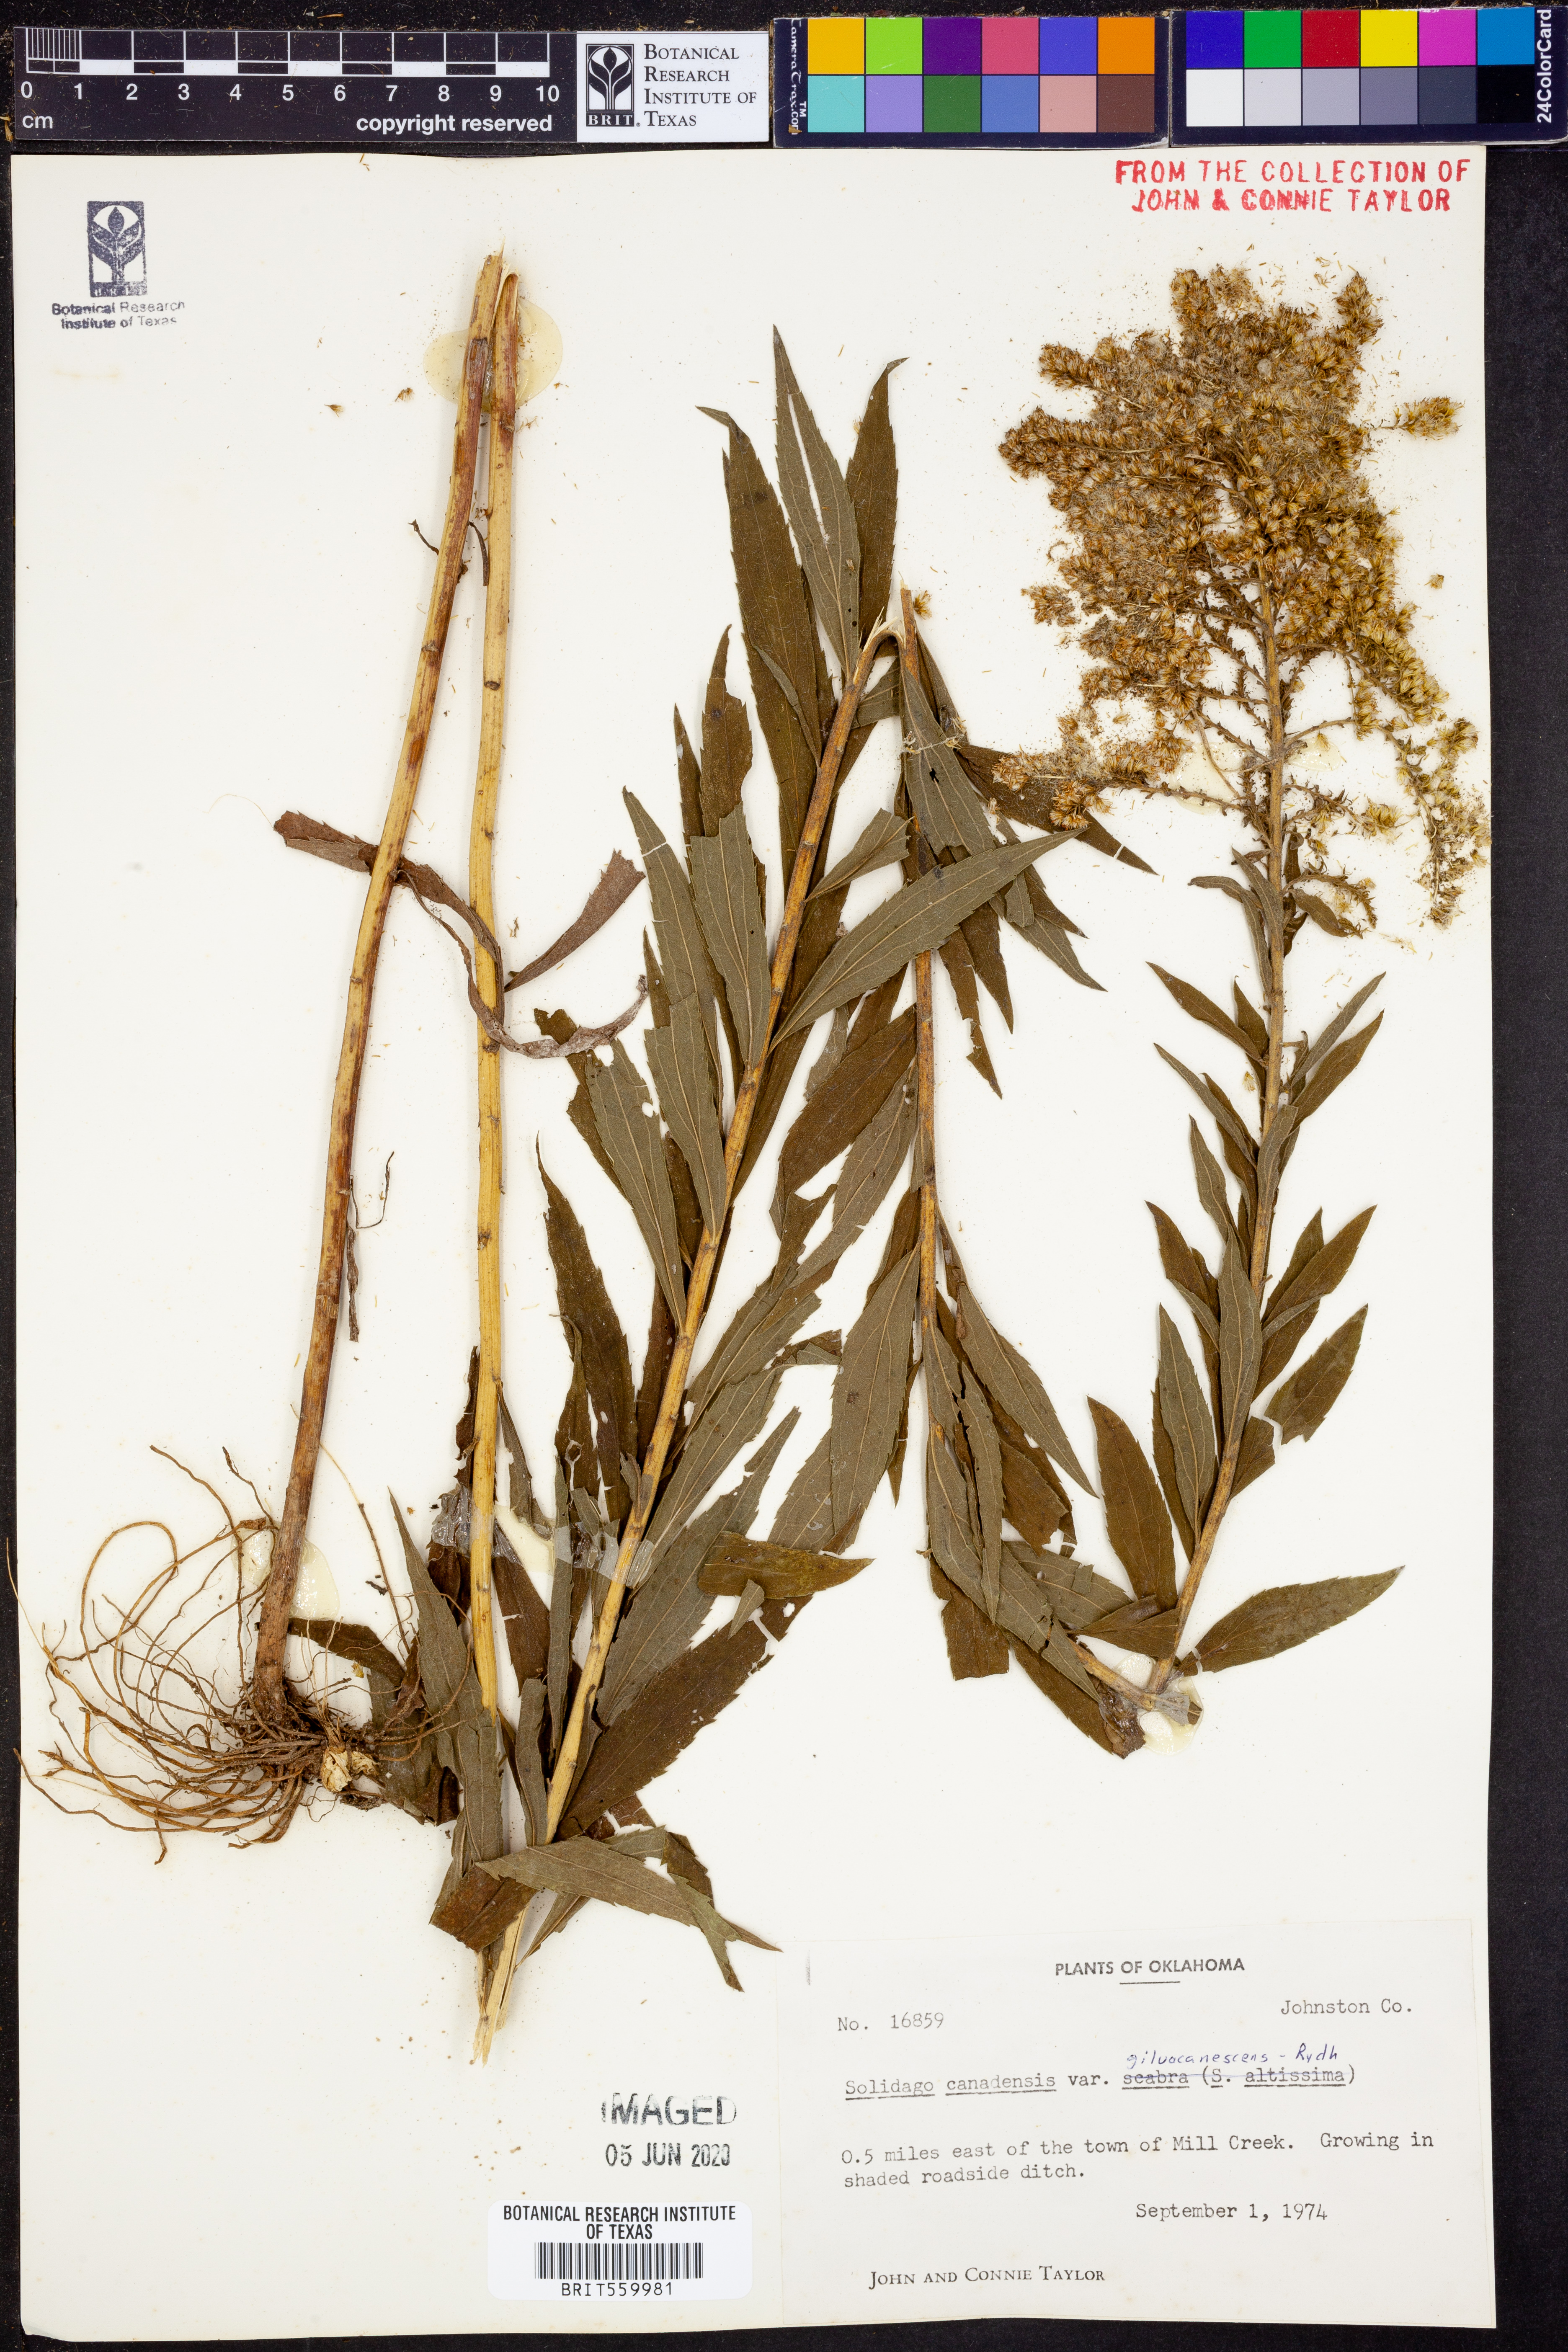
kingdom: Plantae
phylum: Tracheophyta
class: Magnoliopsida
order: Asterales
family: Asteraceae
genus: Solidago
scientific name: Solidago altissima
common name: Late goldenrod
